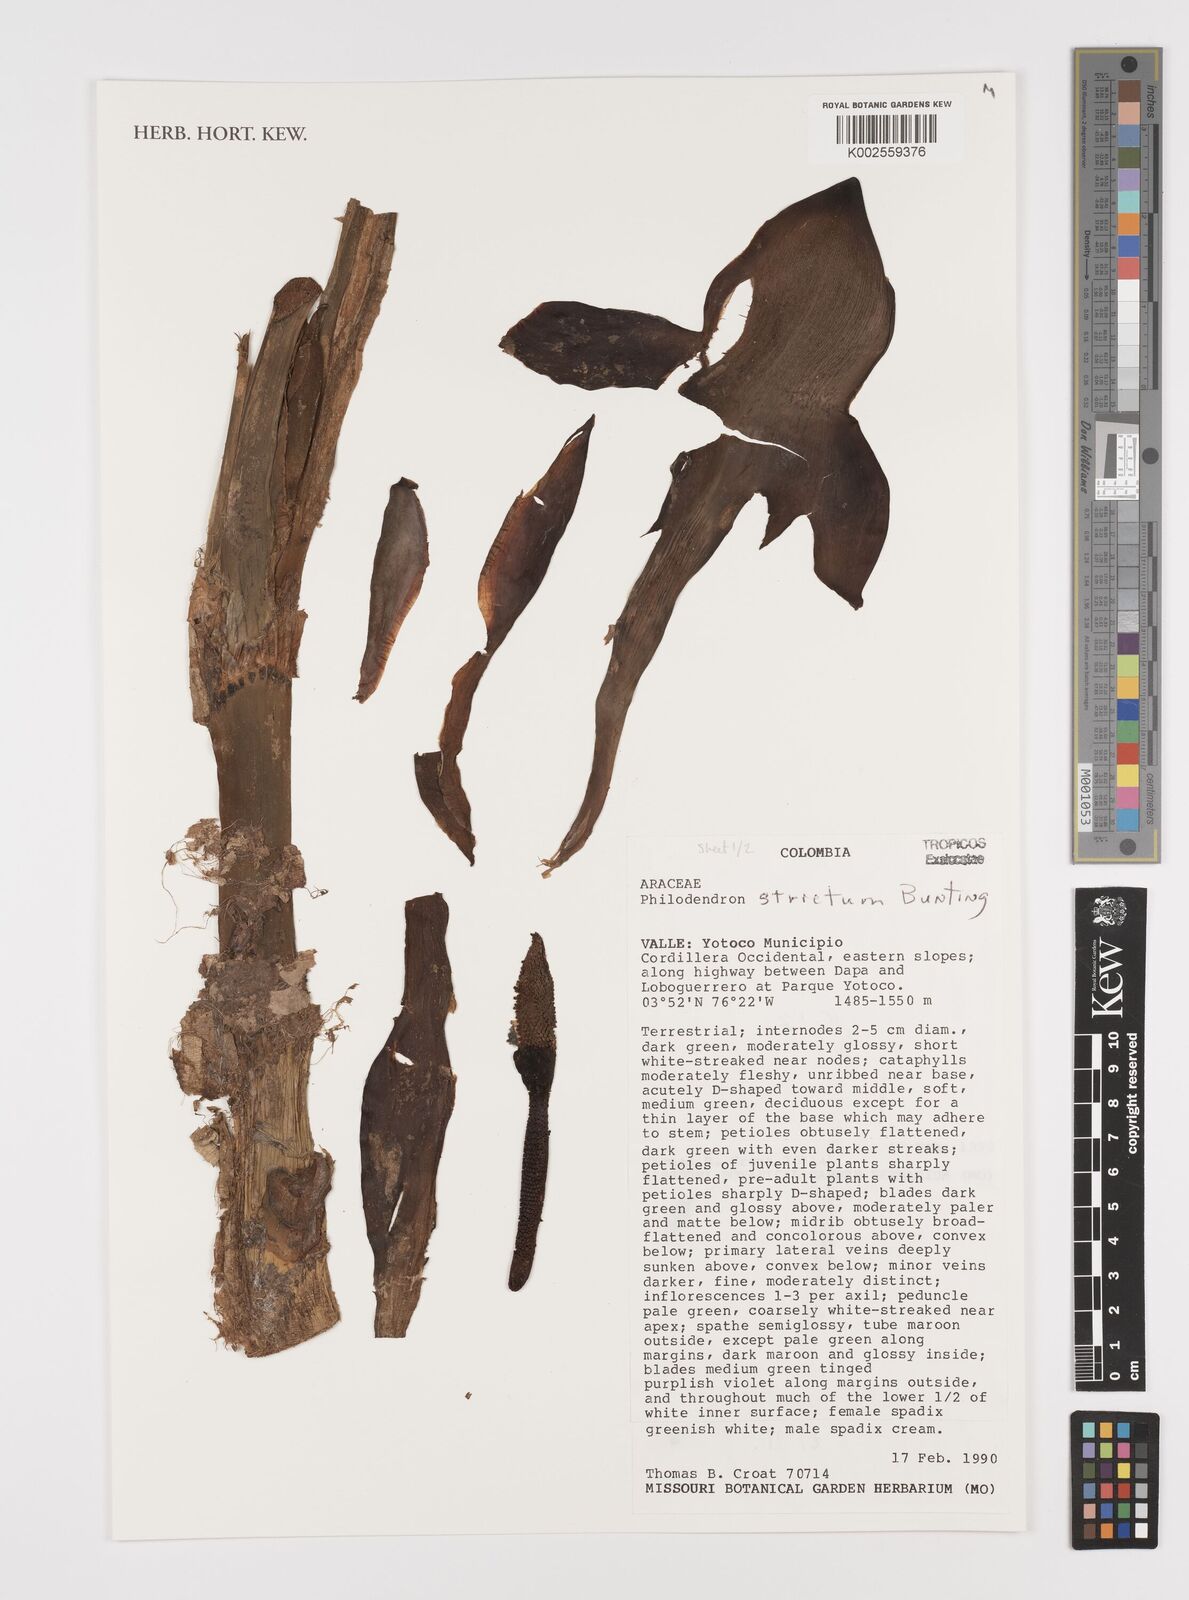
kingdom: Plantae
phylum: Tracheophyta
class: Liliopsida
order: Alismatales
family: Araceae
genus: Philodendron
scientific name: Philodendron strictum
